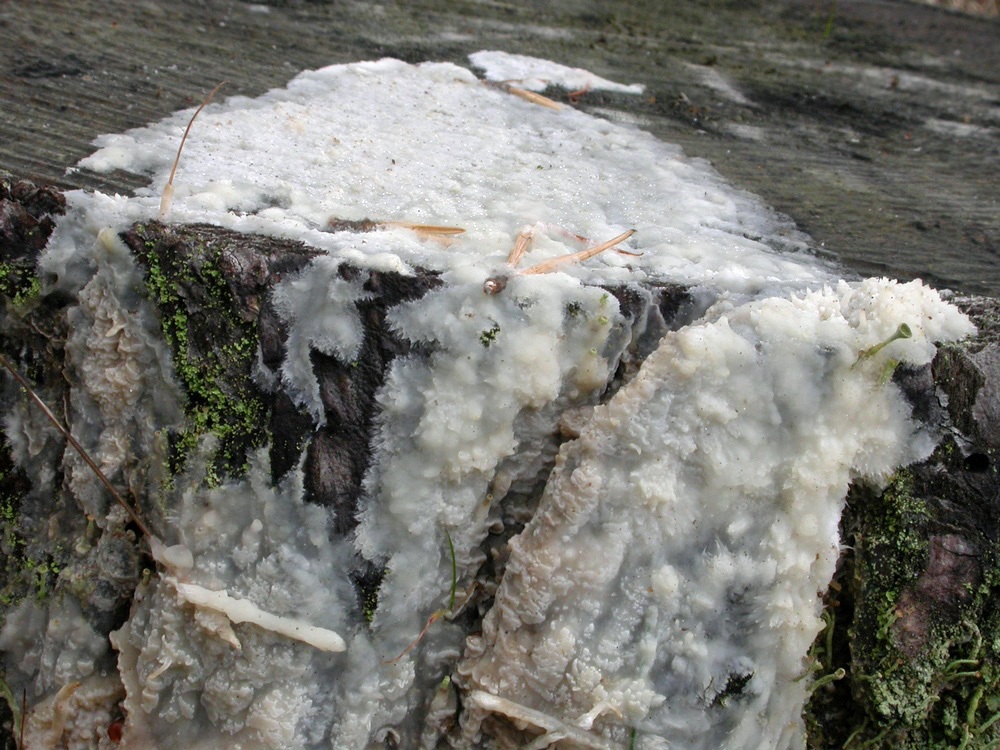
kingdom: Fungi
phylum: Basidiomycota
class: Agaricomycetes
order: Polyporales
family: Phanerochaetaceae
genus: Phlebiopsis
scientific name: Phlebiopsis gigantea
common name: kæmpebarksvamp
